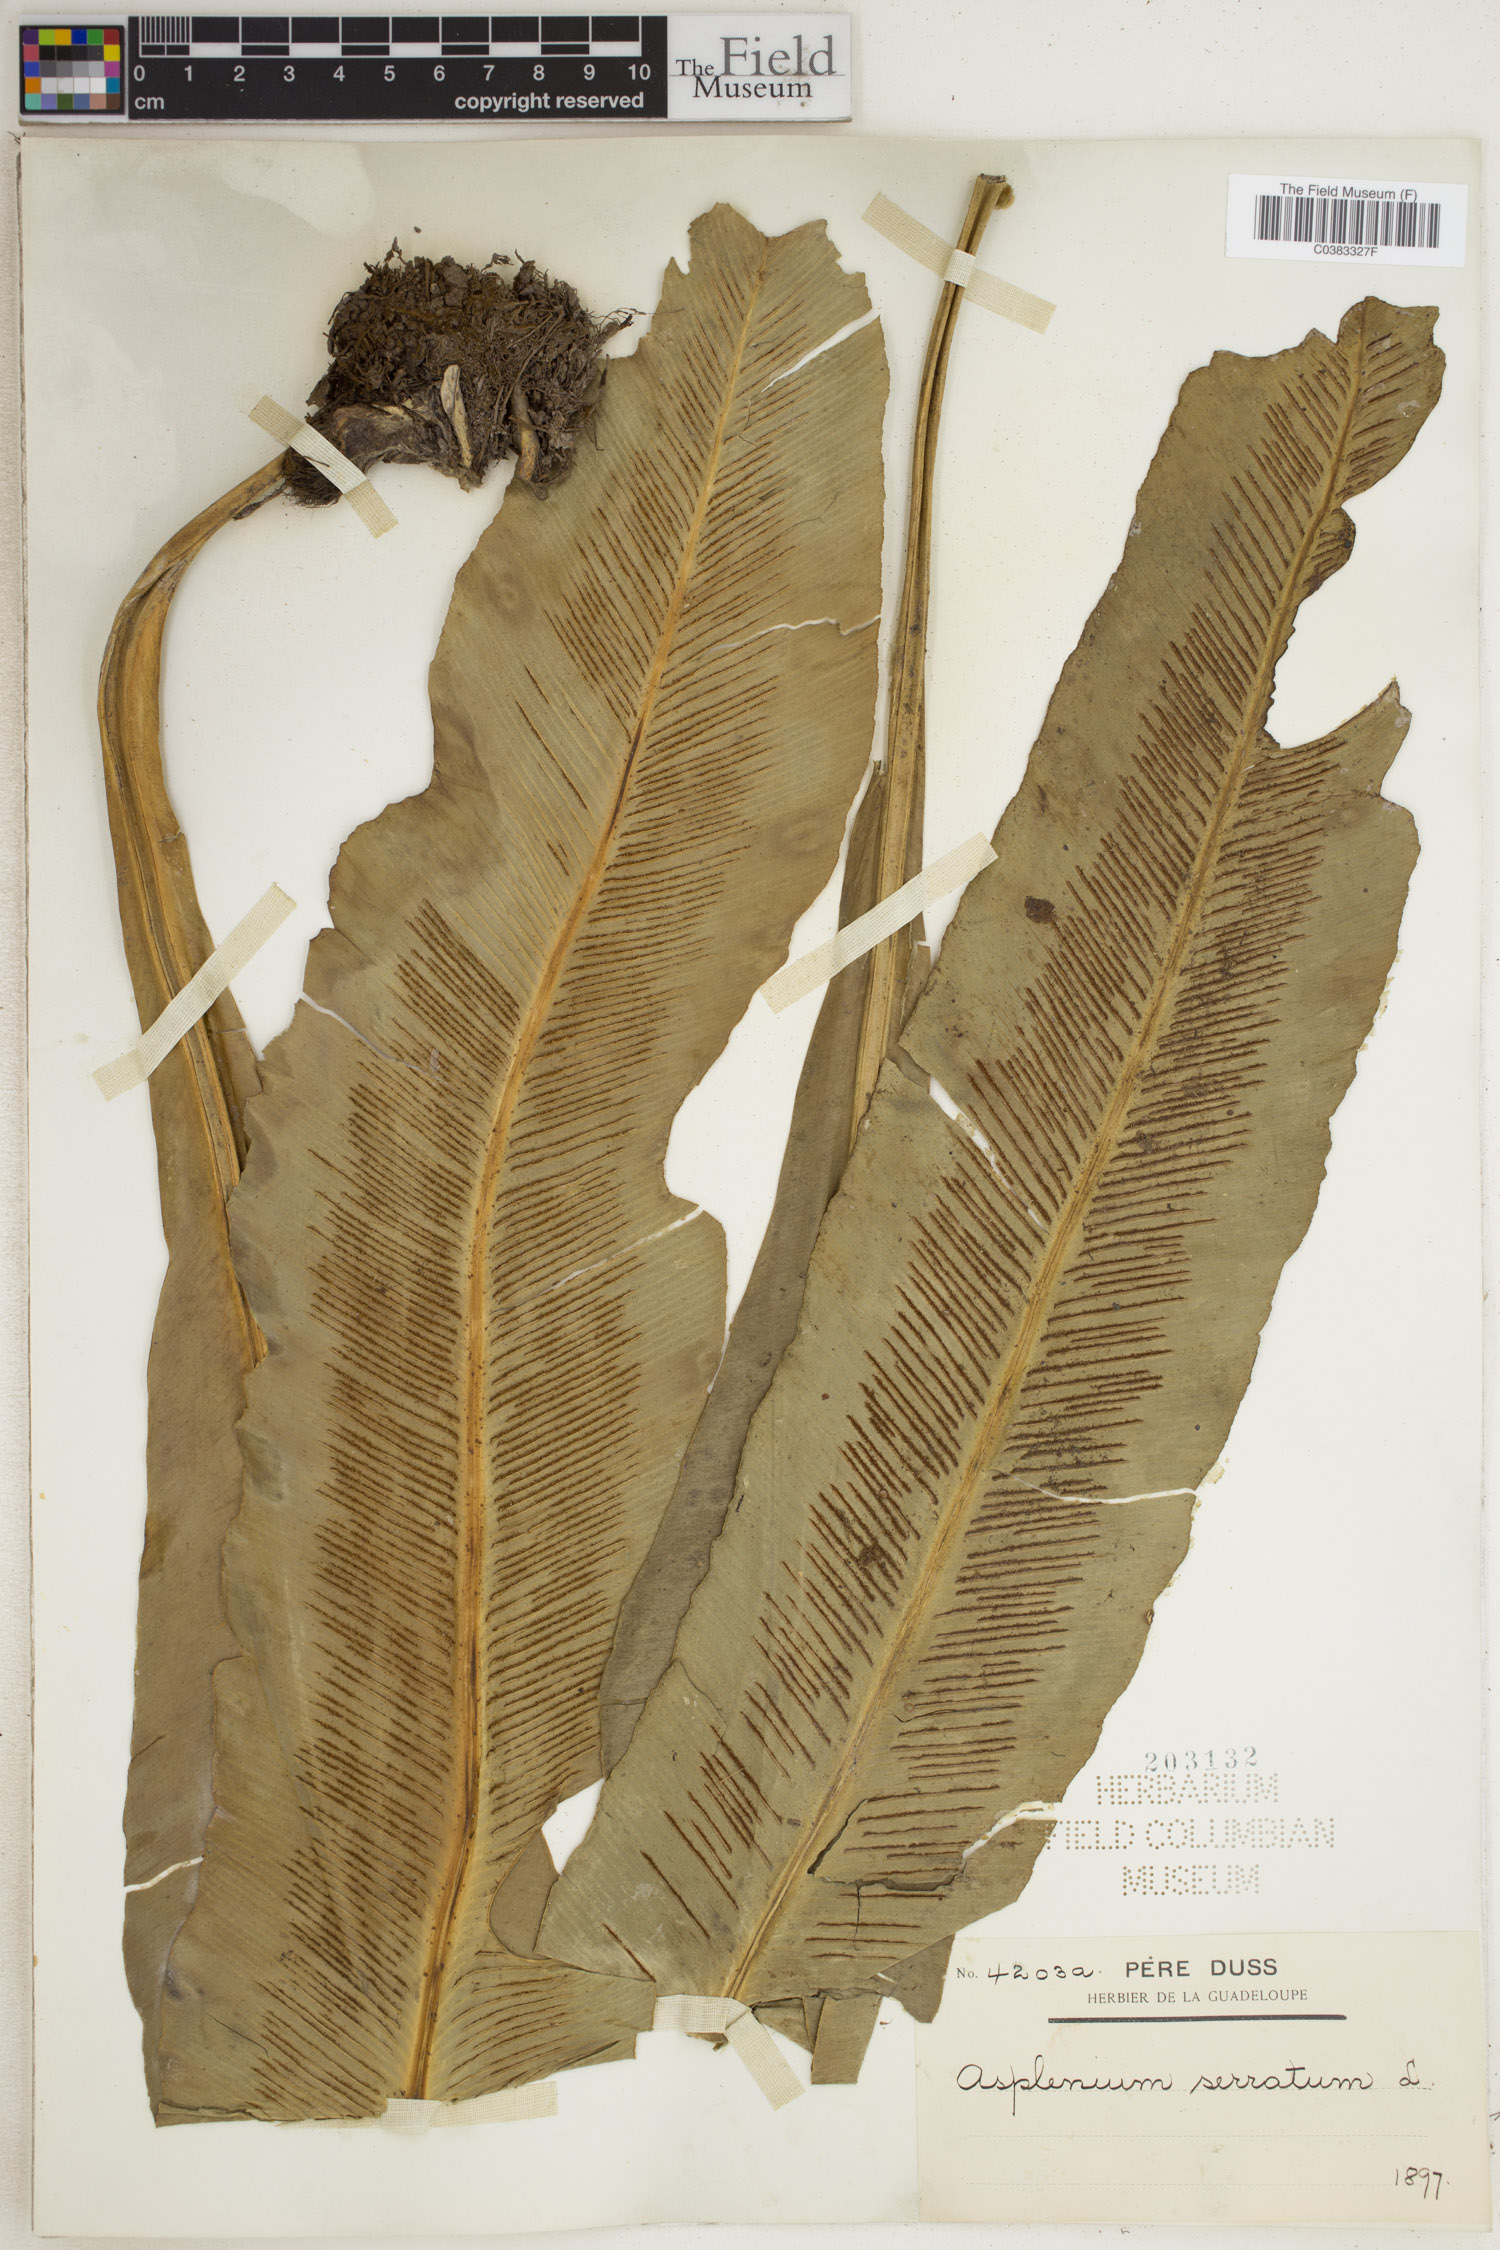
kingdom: Plantae
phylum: Tracheophyta
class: Polypodiopsida
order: Polypodiales
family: Aspleniaceae
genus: Asplenium
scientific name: Asplenium serratum
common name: Wild birdnest fern
